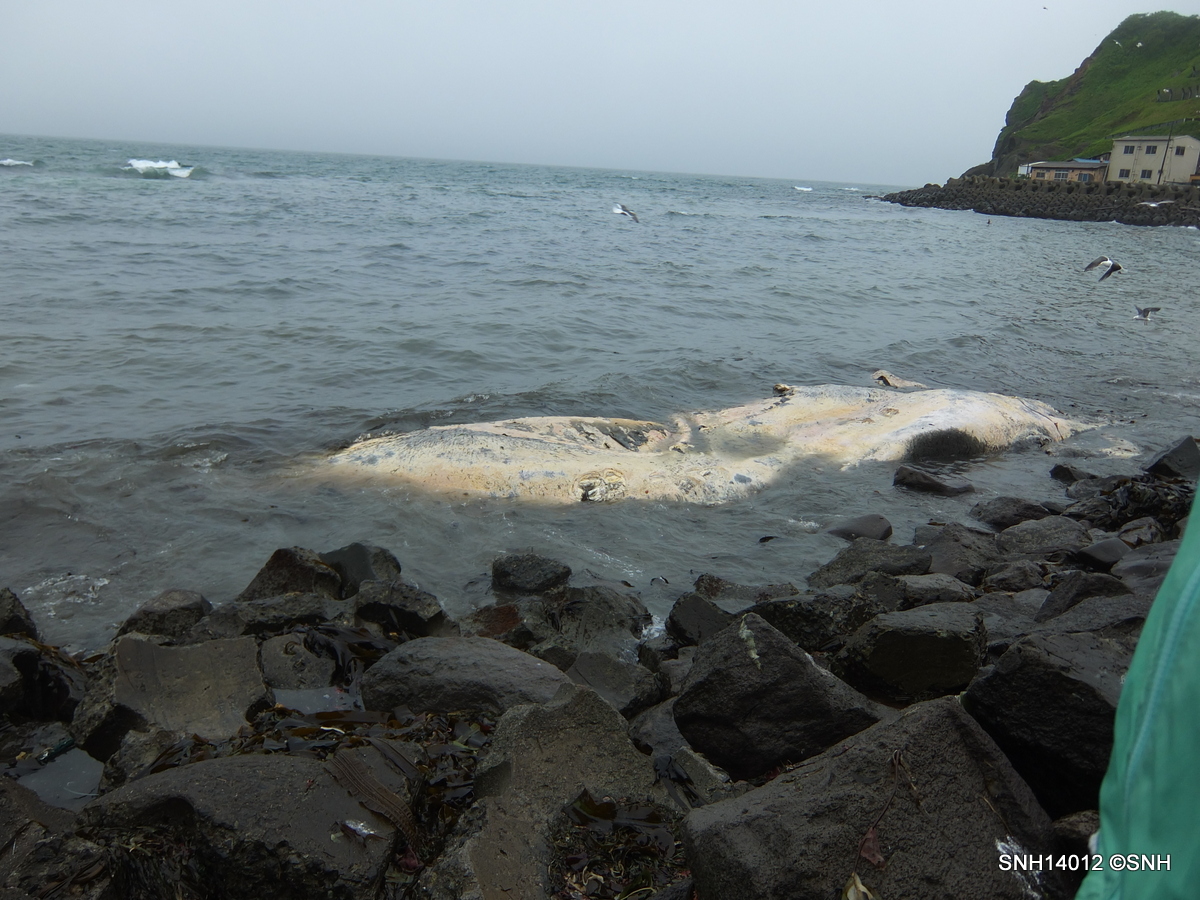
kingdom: Animalia
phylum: Chordata
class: Mammalia
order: Cetacea
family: Balaenopteridae
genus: Megaptera
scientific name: Megaptera novaeangliae
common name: Humpback whale
